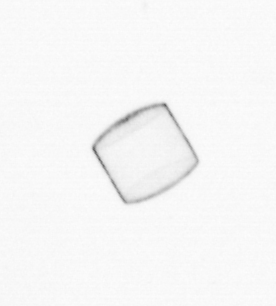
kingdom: Chromista
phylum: Ochrophyta
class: Bacillariophyceae
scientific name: Bacillariophyceae
